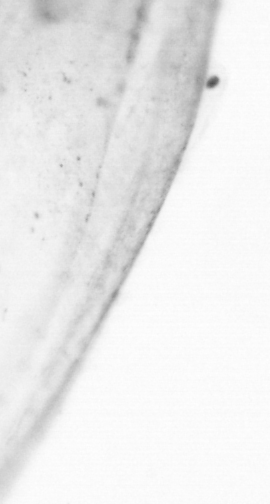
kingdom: Animalia
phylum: Chordata
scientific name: Chordata
